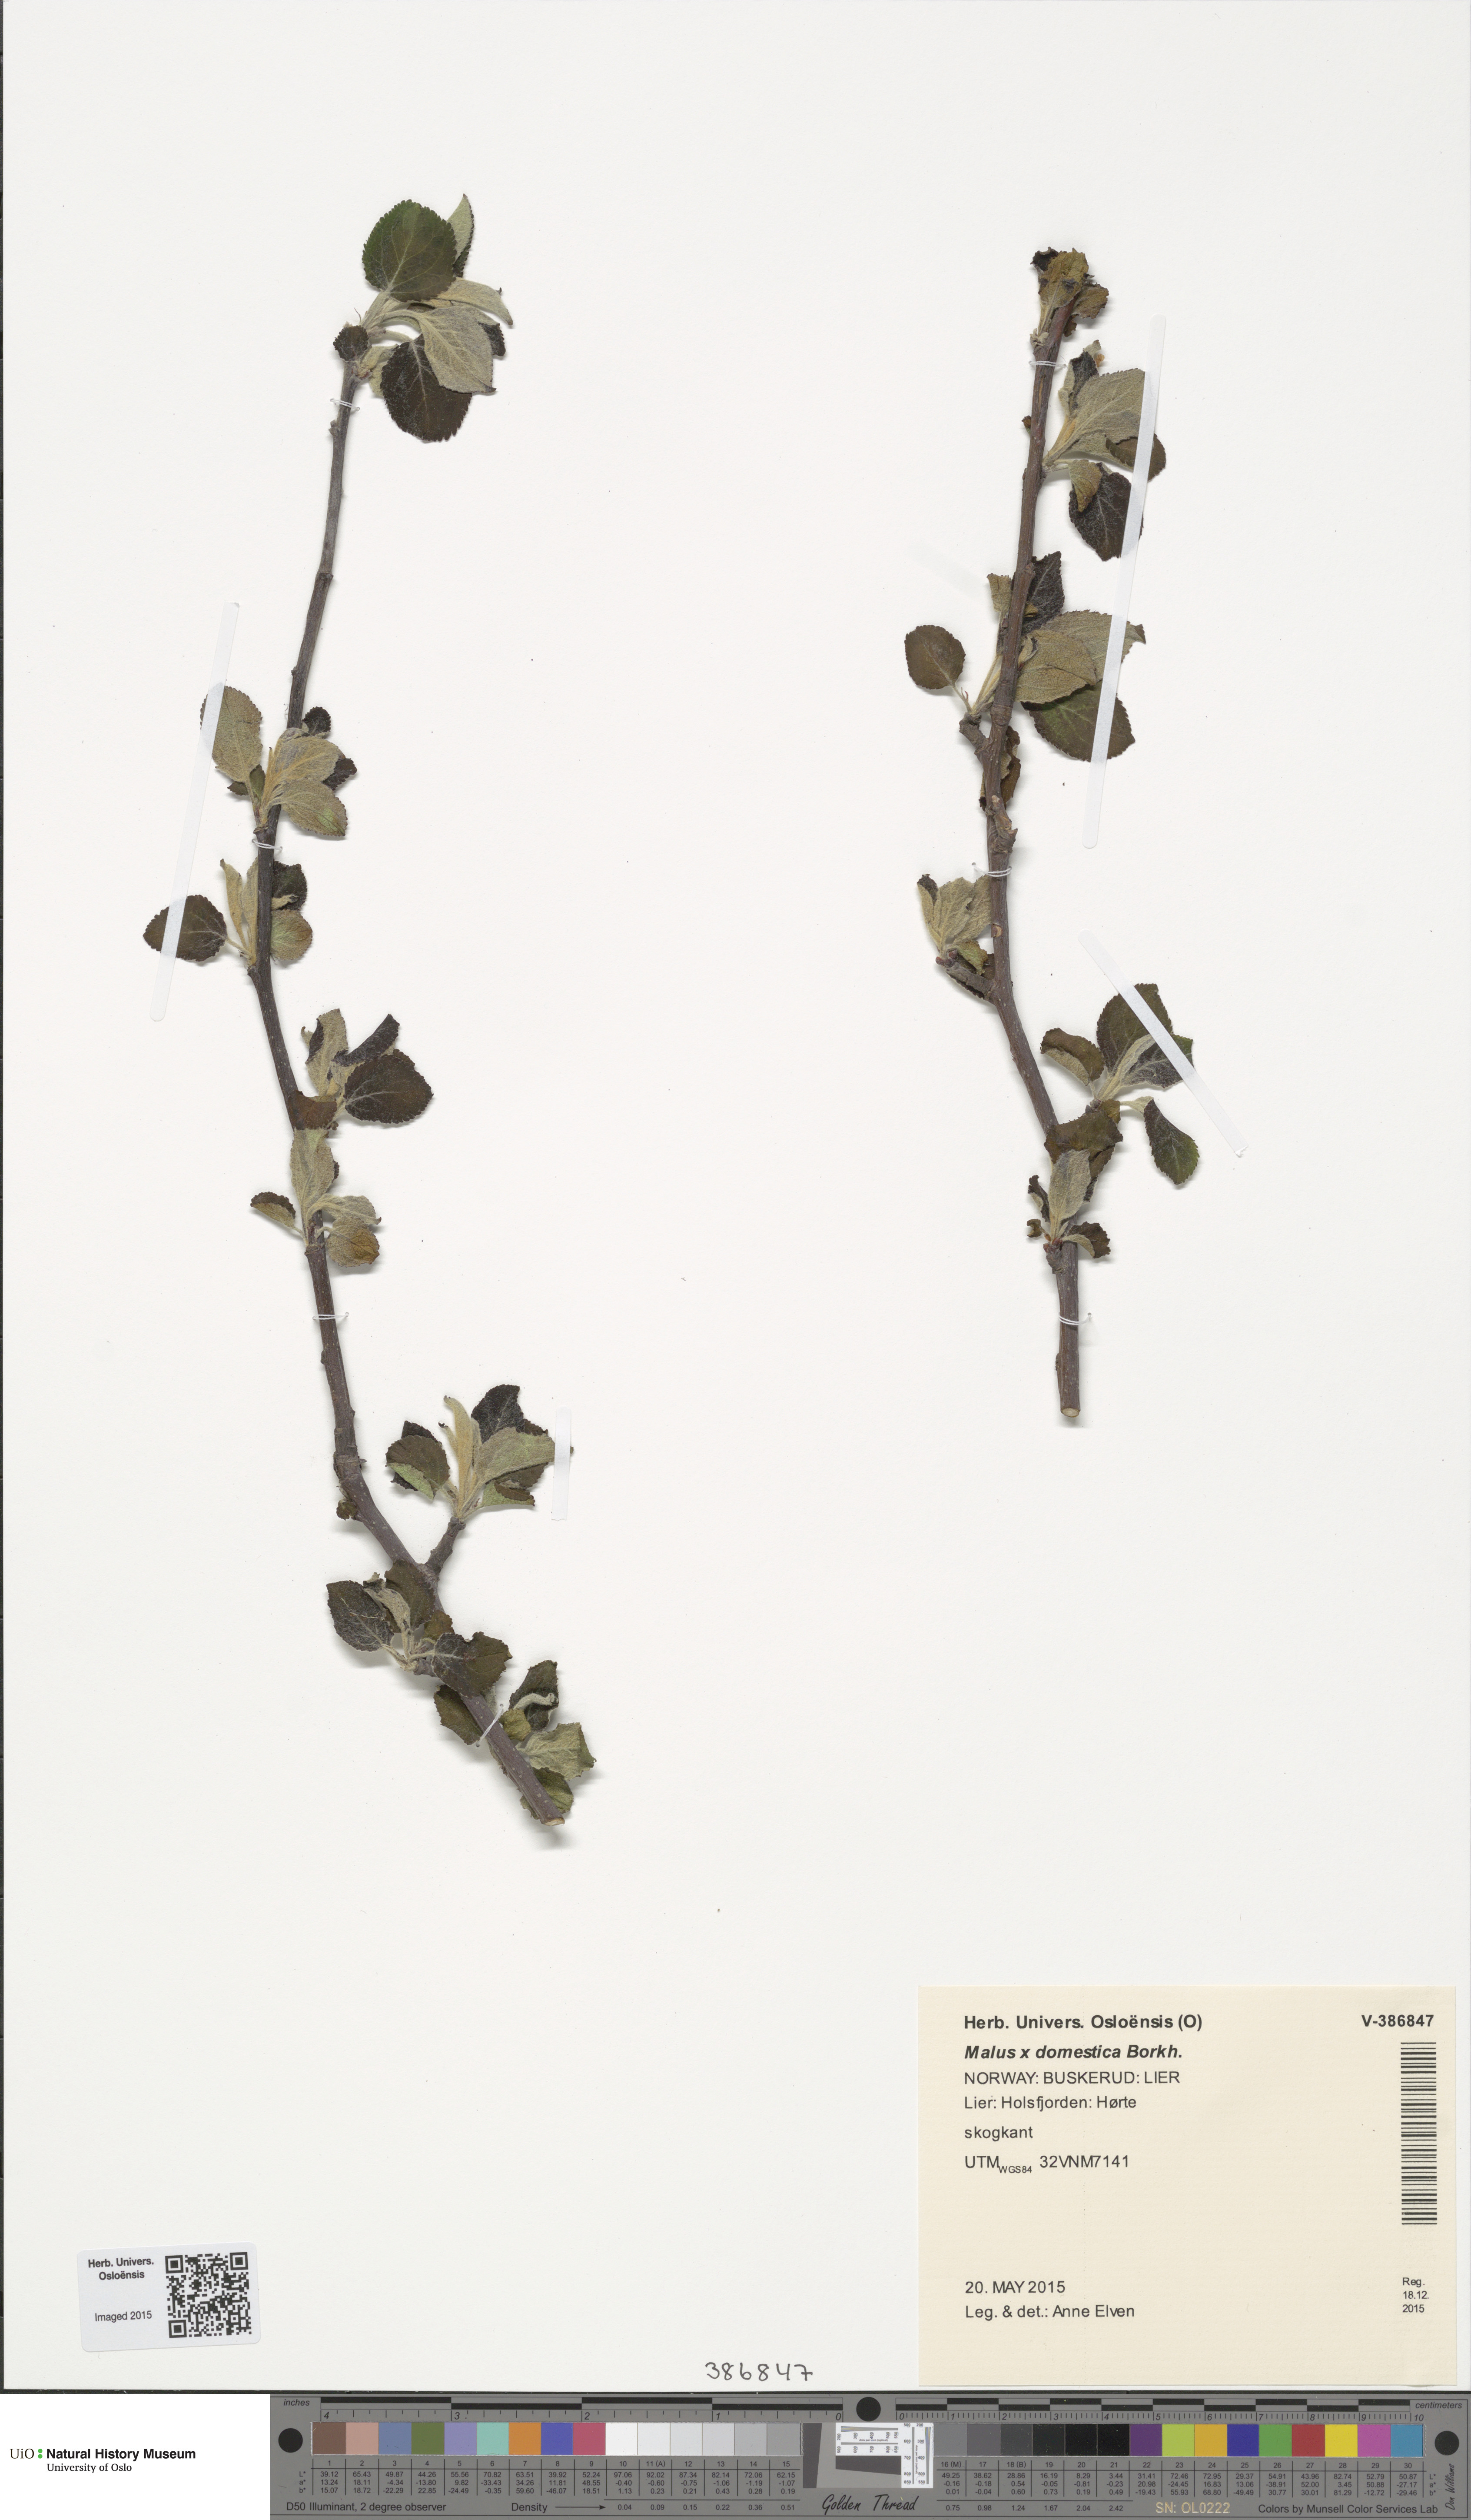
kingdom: Plantae
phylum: Tracheophyta
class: Magnoliopsida
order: Rosales
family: Rosaceae
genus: Malus
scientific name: Malus domestica
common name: Apple
